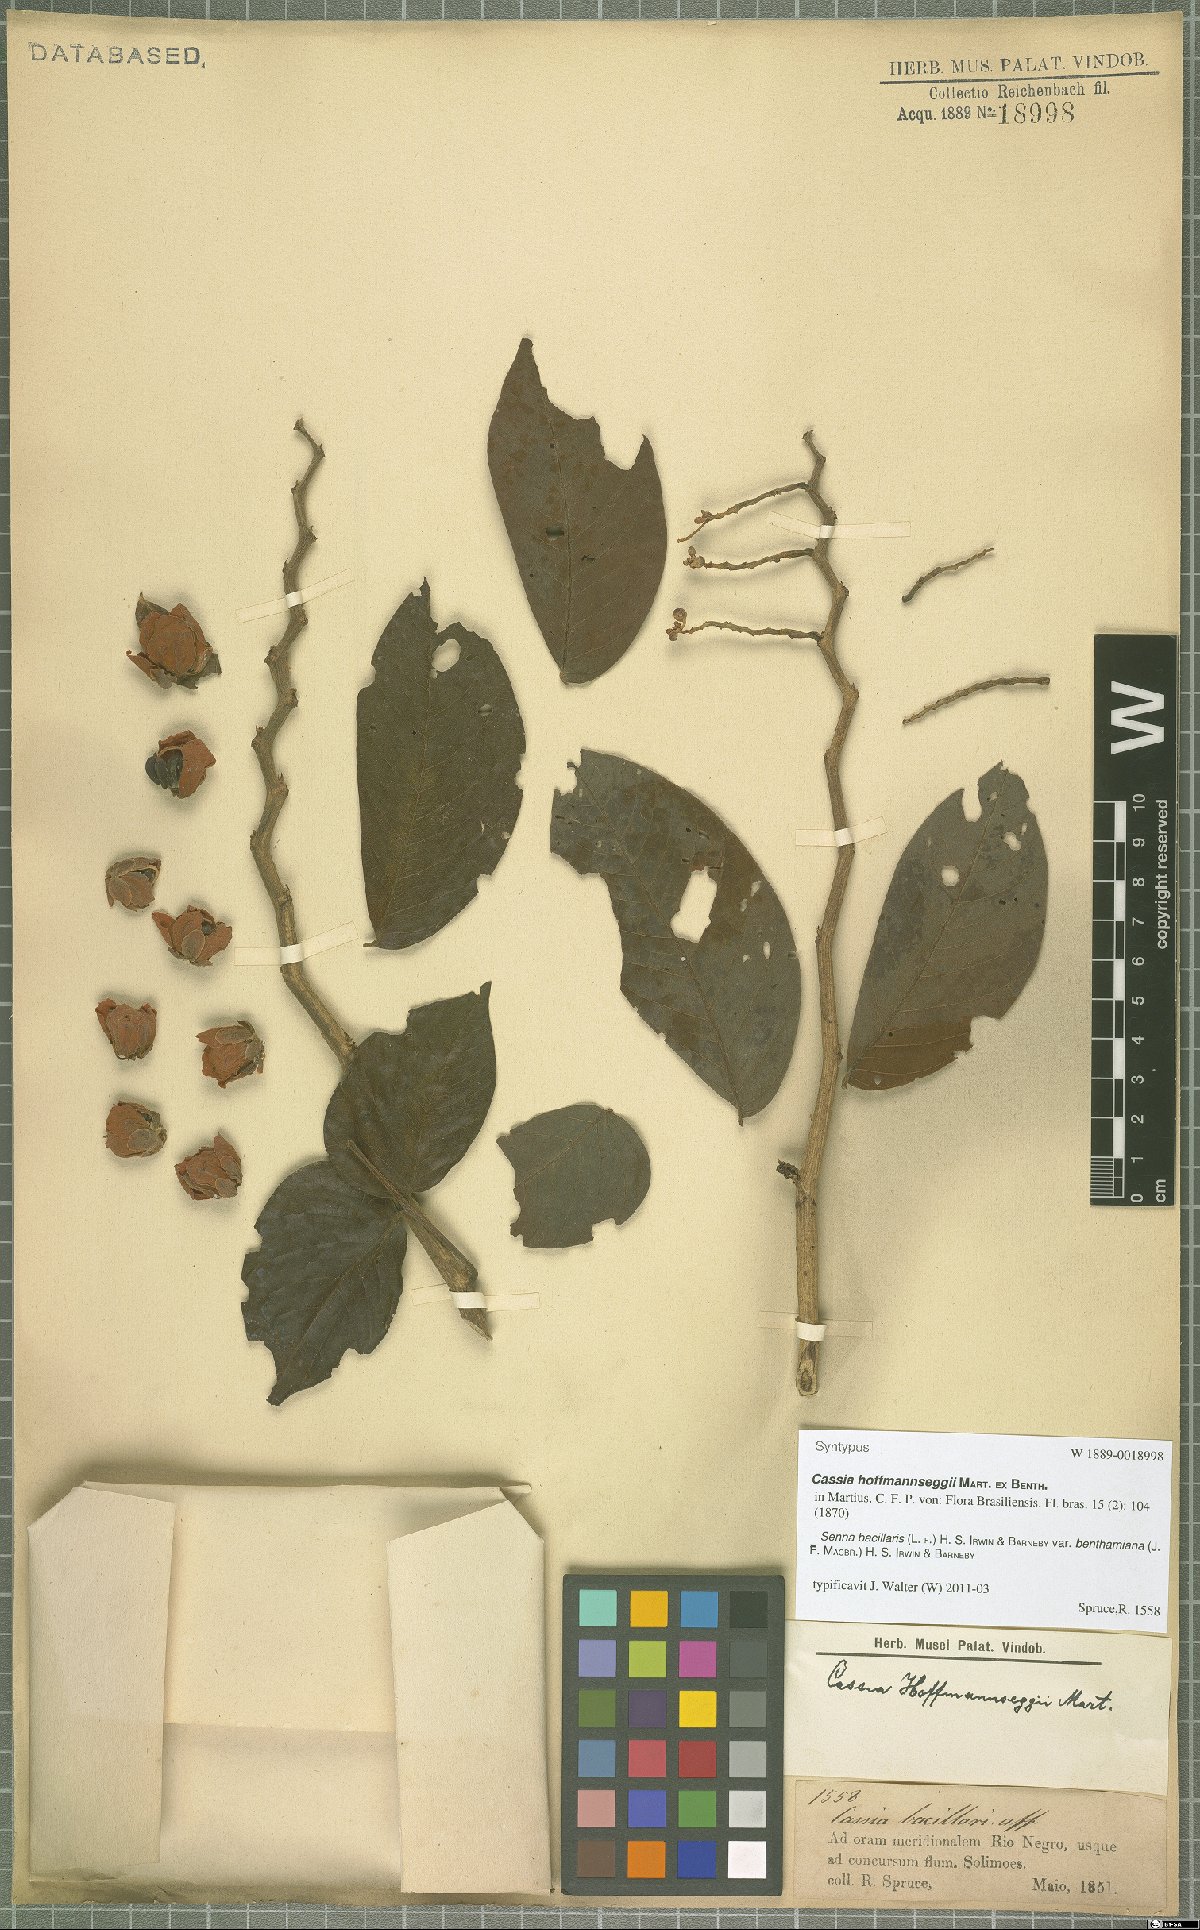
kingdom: Plantae
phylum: Tracheophyta
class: Magnoliopsida
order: Fabales
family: Fabaceae
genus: Senna
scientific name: Senna bacillaris
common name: West indian showertree
